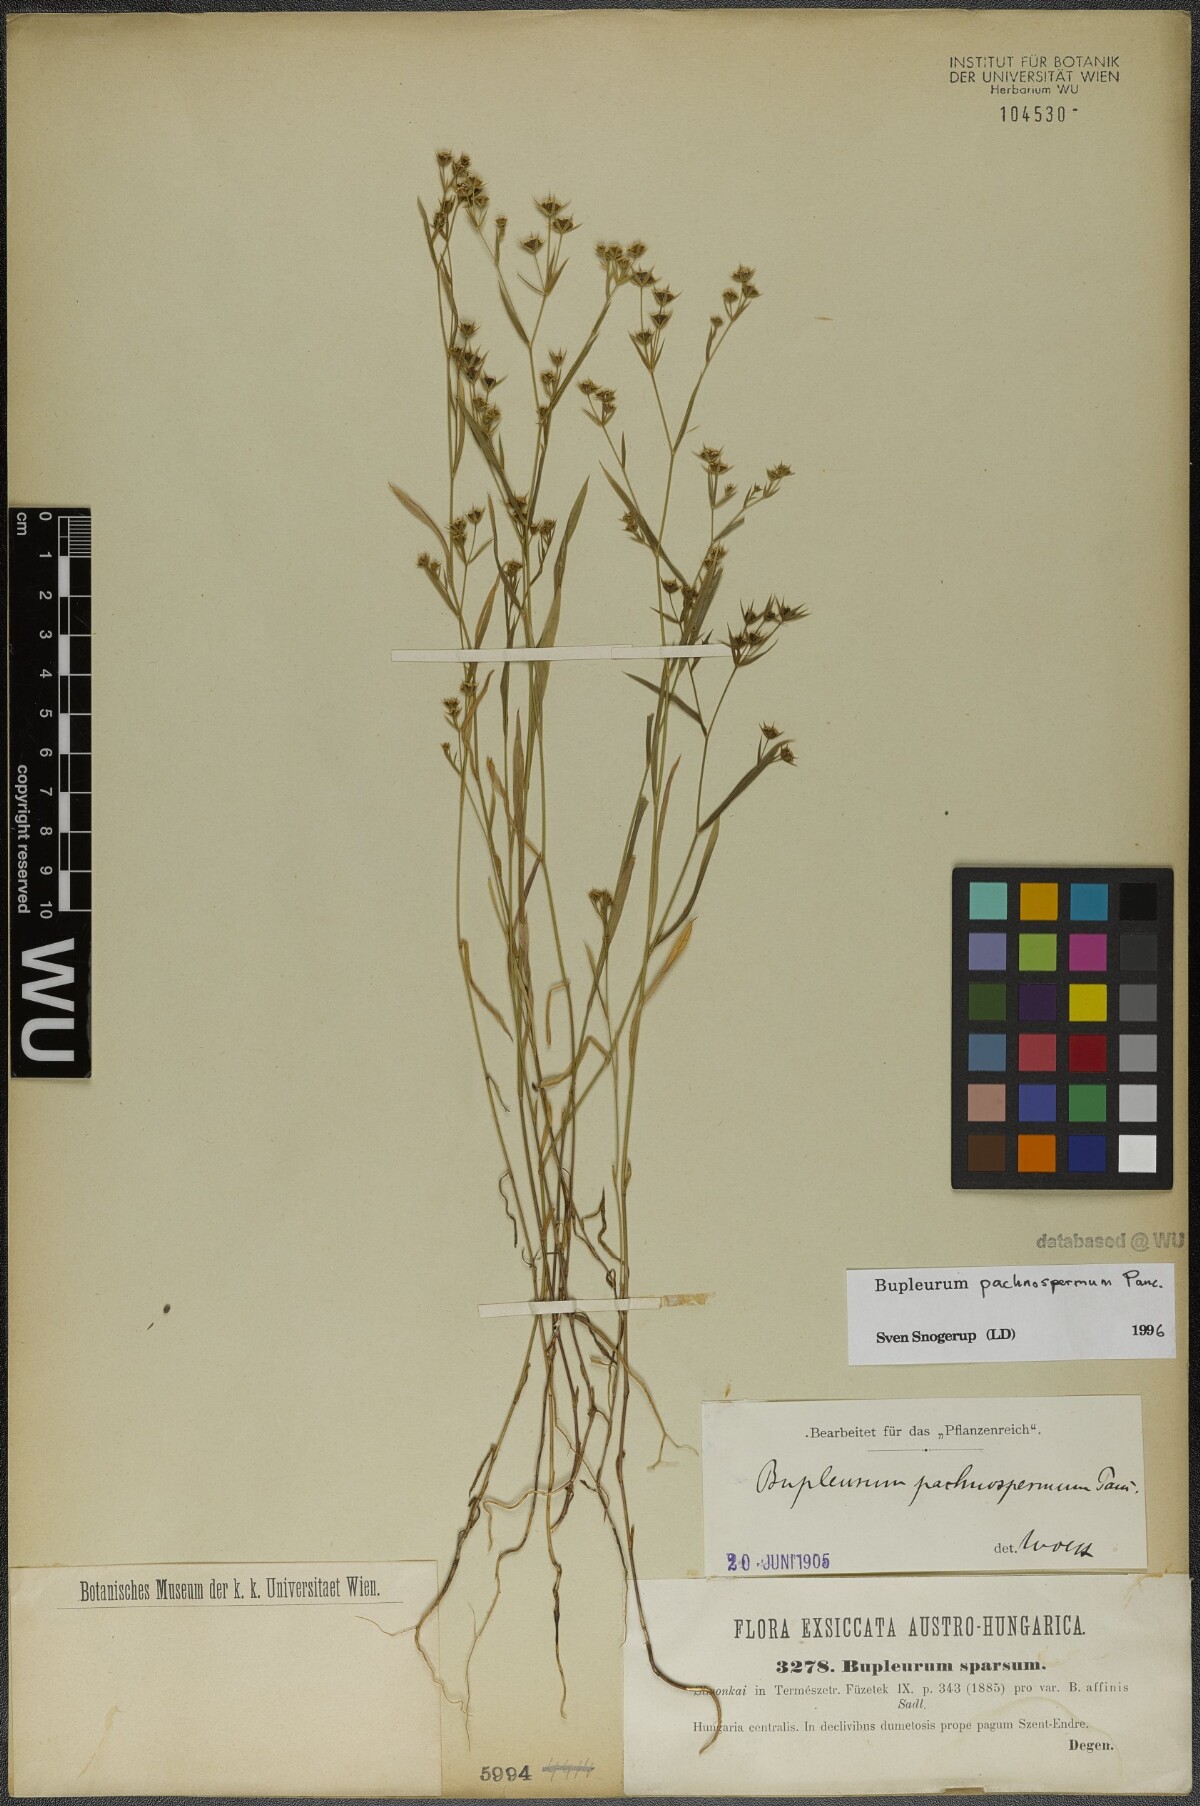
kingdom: Plantae
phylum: Tracheophyta
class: Magnoliopsida
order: Apiales
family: Apiaceae
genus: Bupleurum
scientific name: Bupleurum pachnospermum
